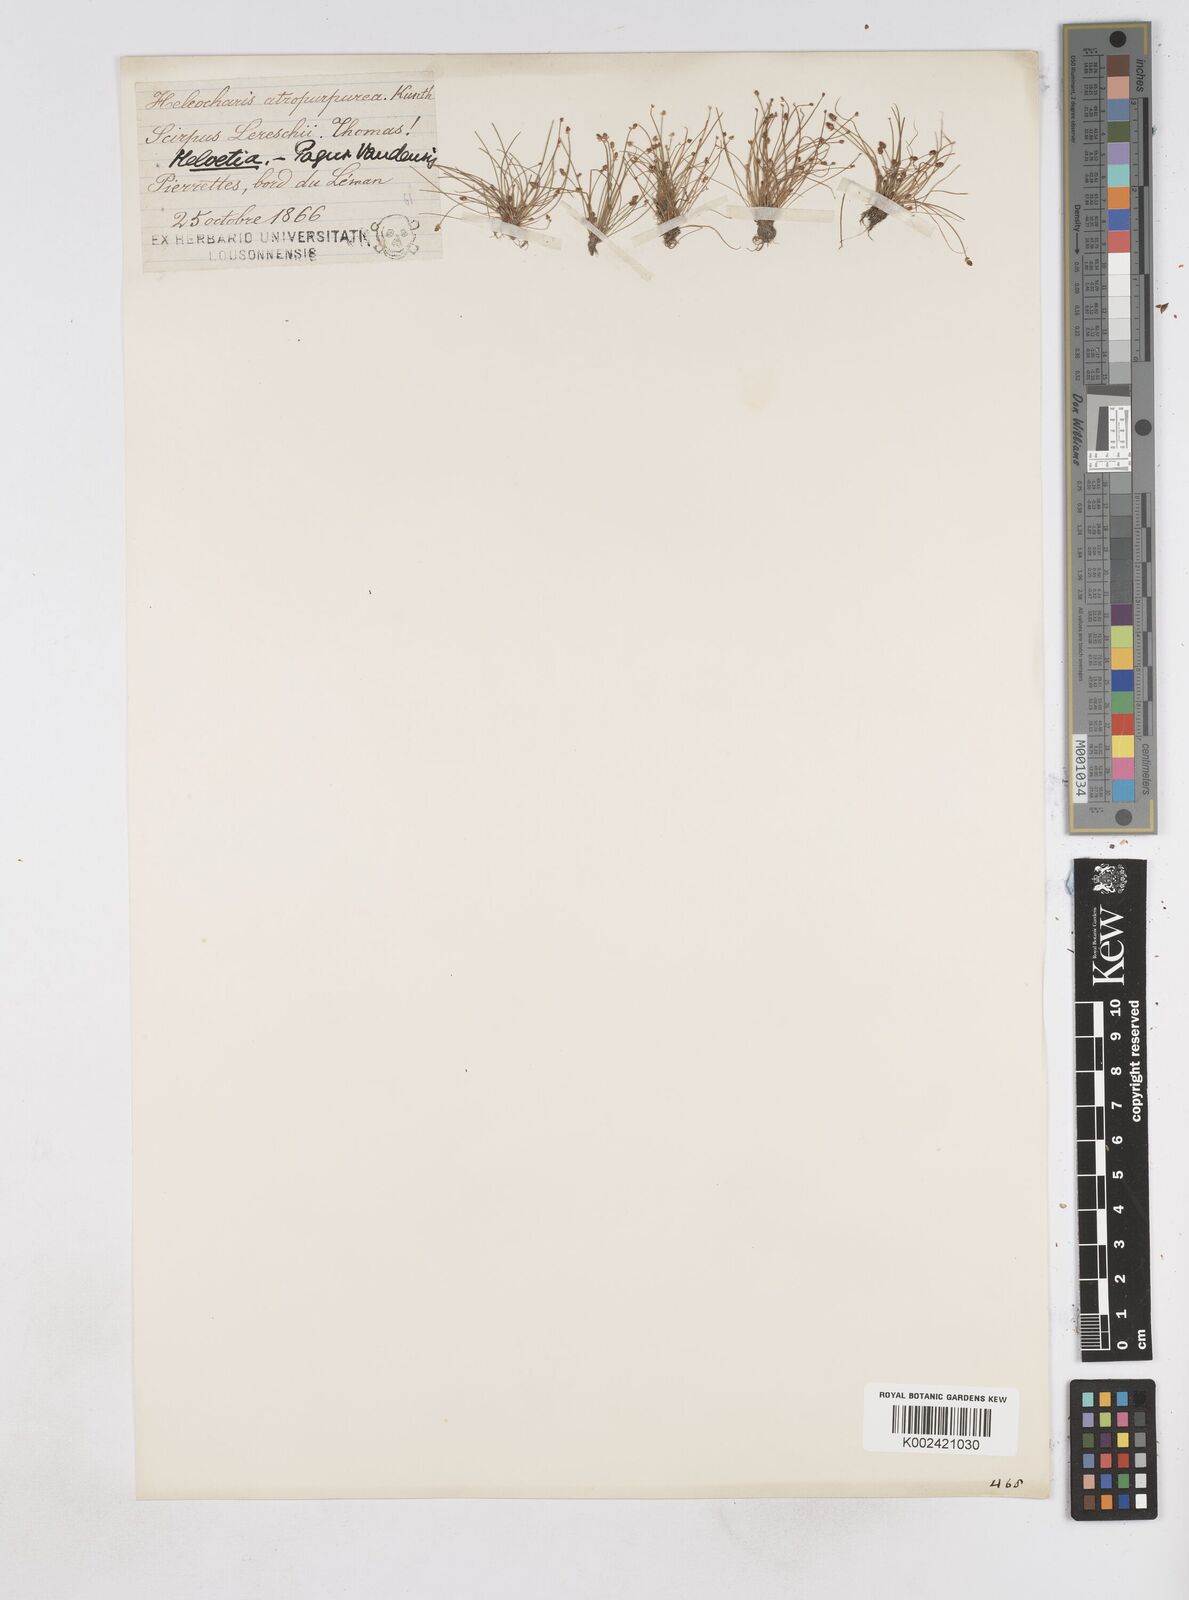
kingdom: Plantae
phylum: Tracheophyta
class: Liliopsida
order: Poales
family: Cyperaceae
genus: Eleocharis
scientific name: Eleocharis atropurpurea
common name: Purple spikerush
